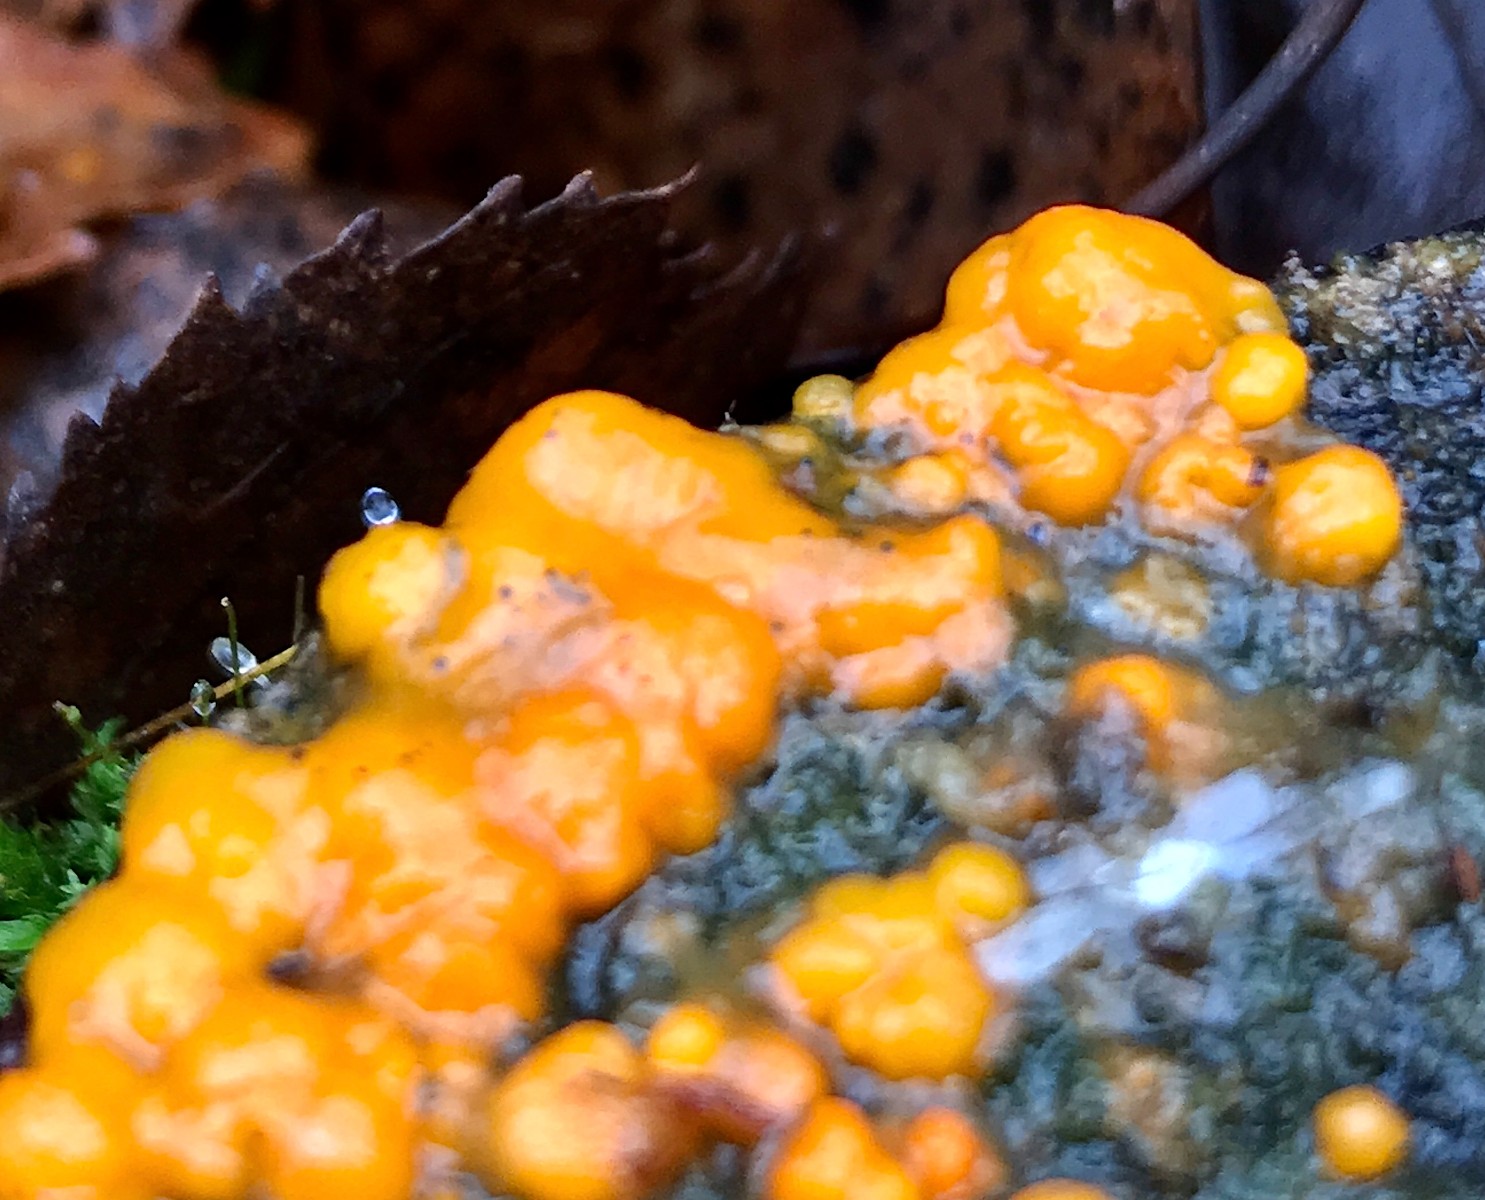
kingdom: Fungi
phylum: Basidiomycota
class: Dacrymycetes
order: Dacrymycetales
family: Dacrymycetaceae
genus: Dacrymyces
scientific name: Dacrymyces stillatus
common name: almindelig tåresvamp
